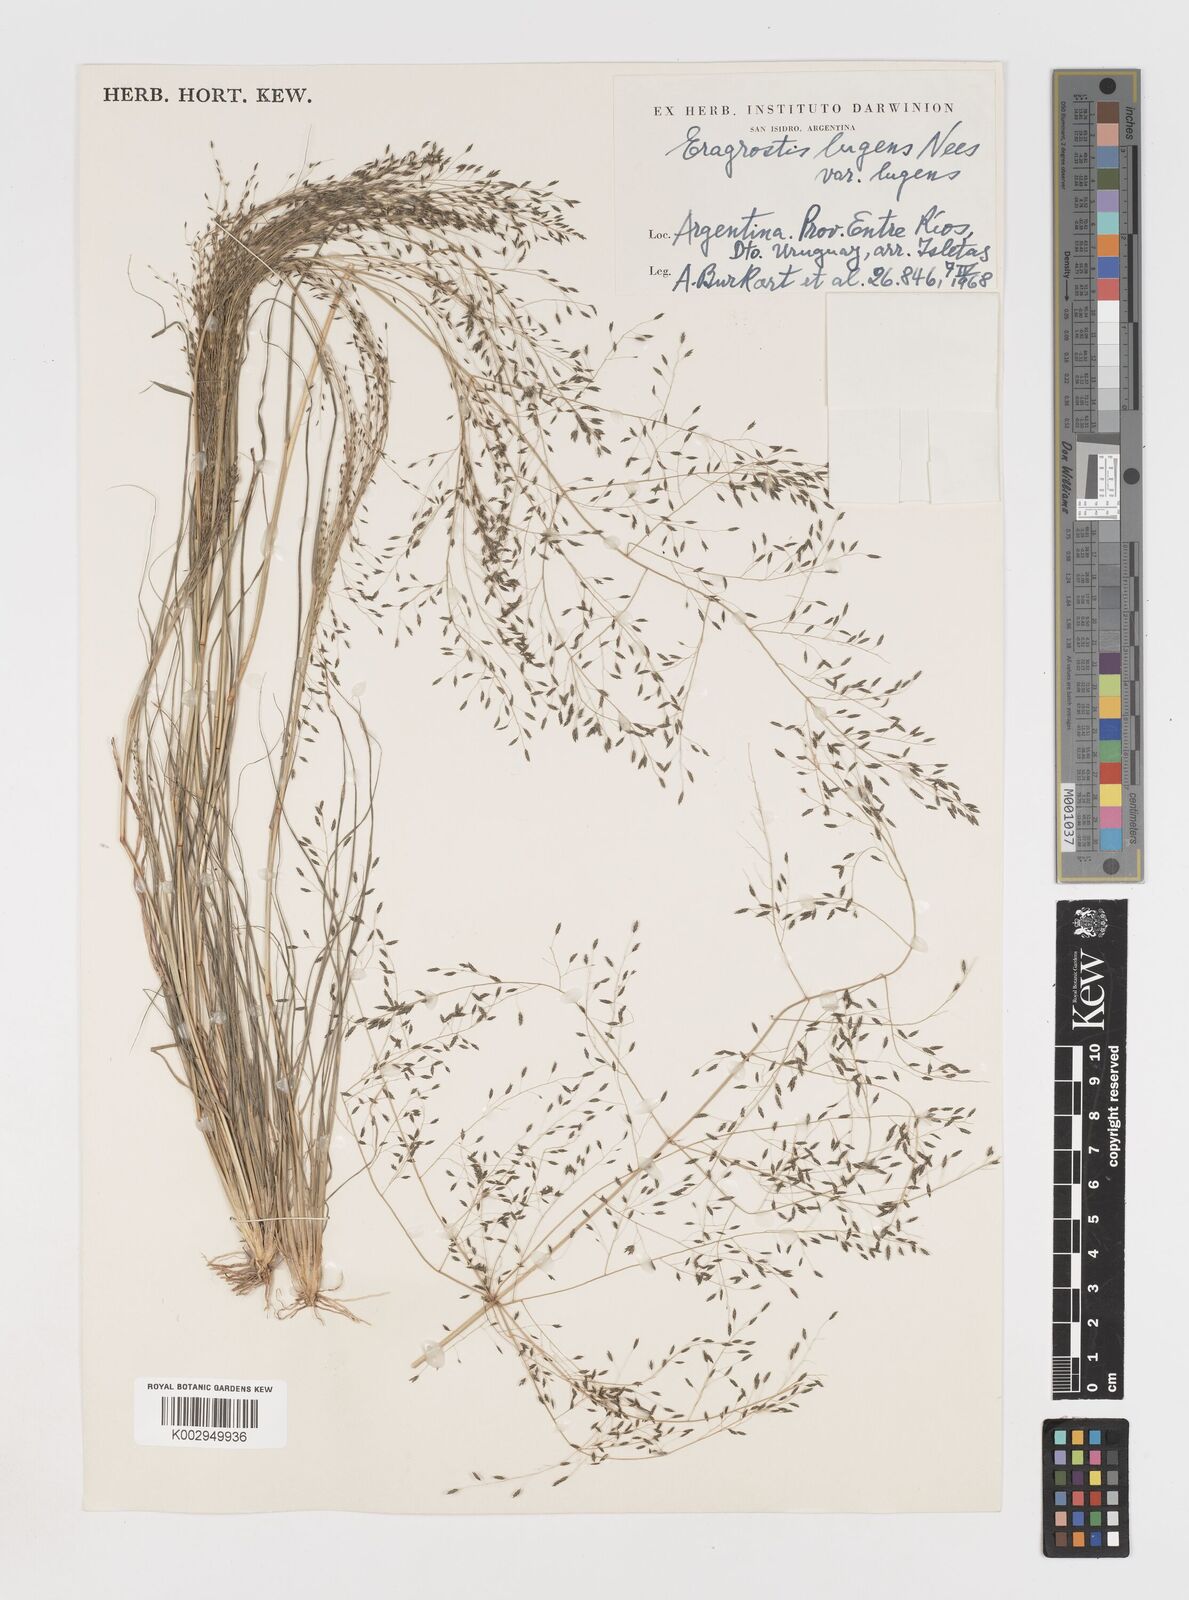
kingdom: Plantae
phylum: Tracheophyta
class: Liliopsida
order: Poales
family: Poaceae
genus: Eragrostis
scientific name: Eragrostis lugens
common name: Mourning love grass
